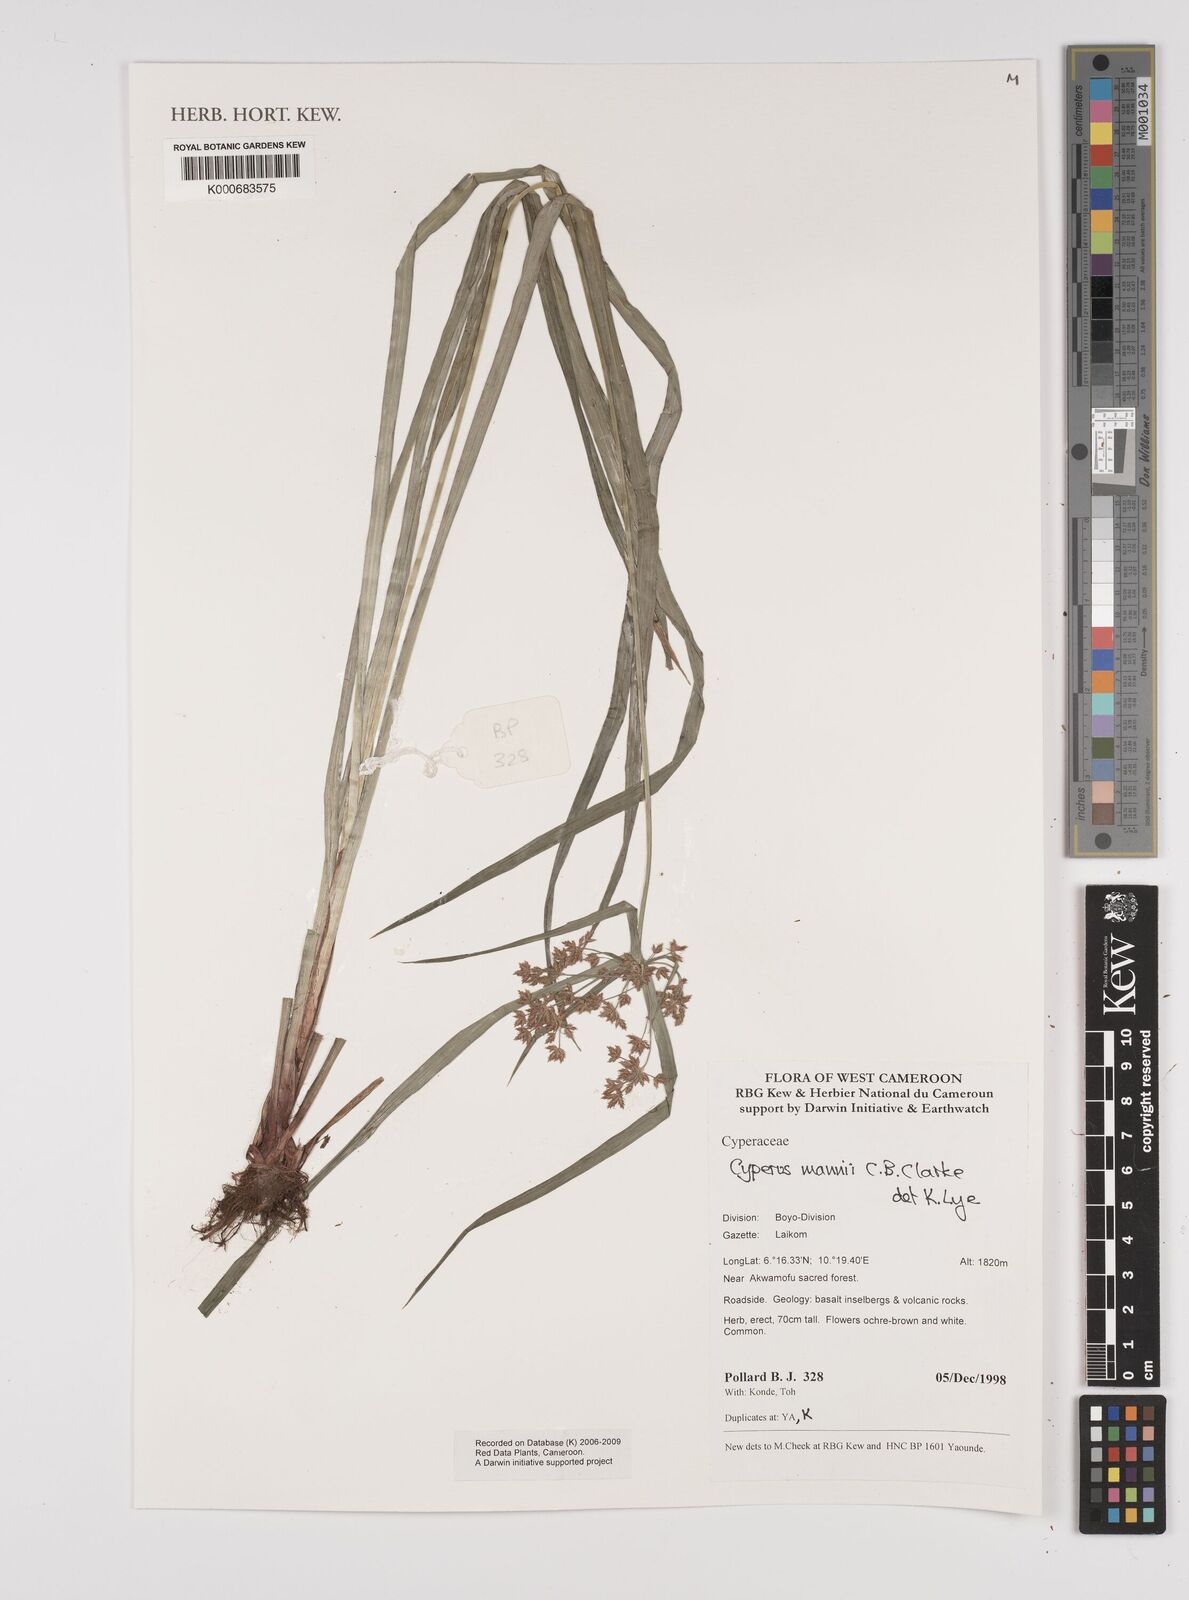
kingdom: Plantae
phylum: Tracheophyta
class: Liliopsida
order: Poales
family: Cyperaceae
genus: Cyperus
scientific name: Cyperus baronii
